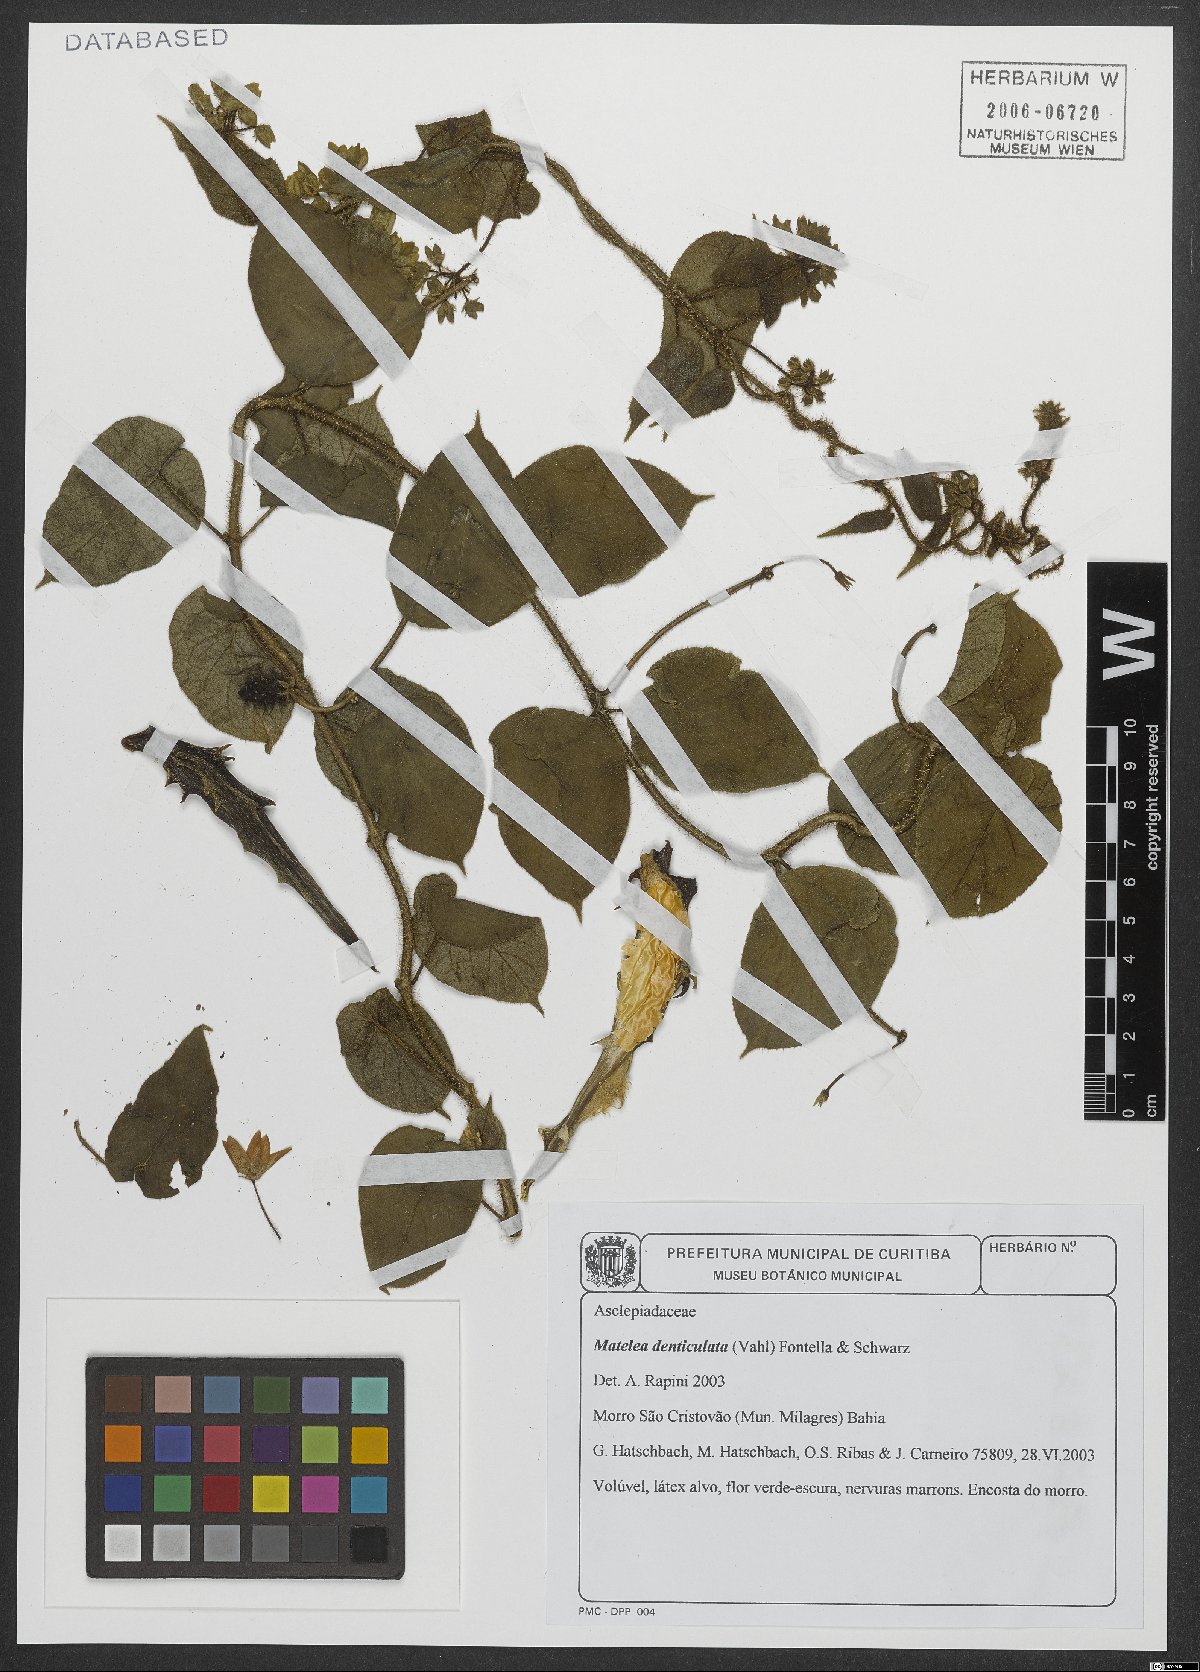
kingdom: Plantae
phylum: Tracheophyta
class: Magnoliopsida
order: Gentianales
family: Apocynaceae
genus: Chloropetalum
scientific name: Chloropetalum denticulatum
